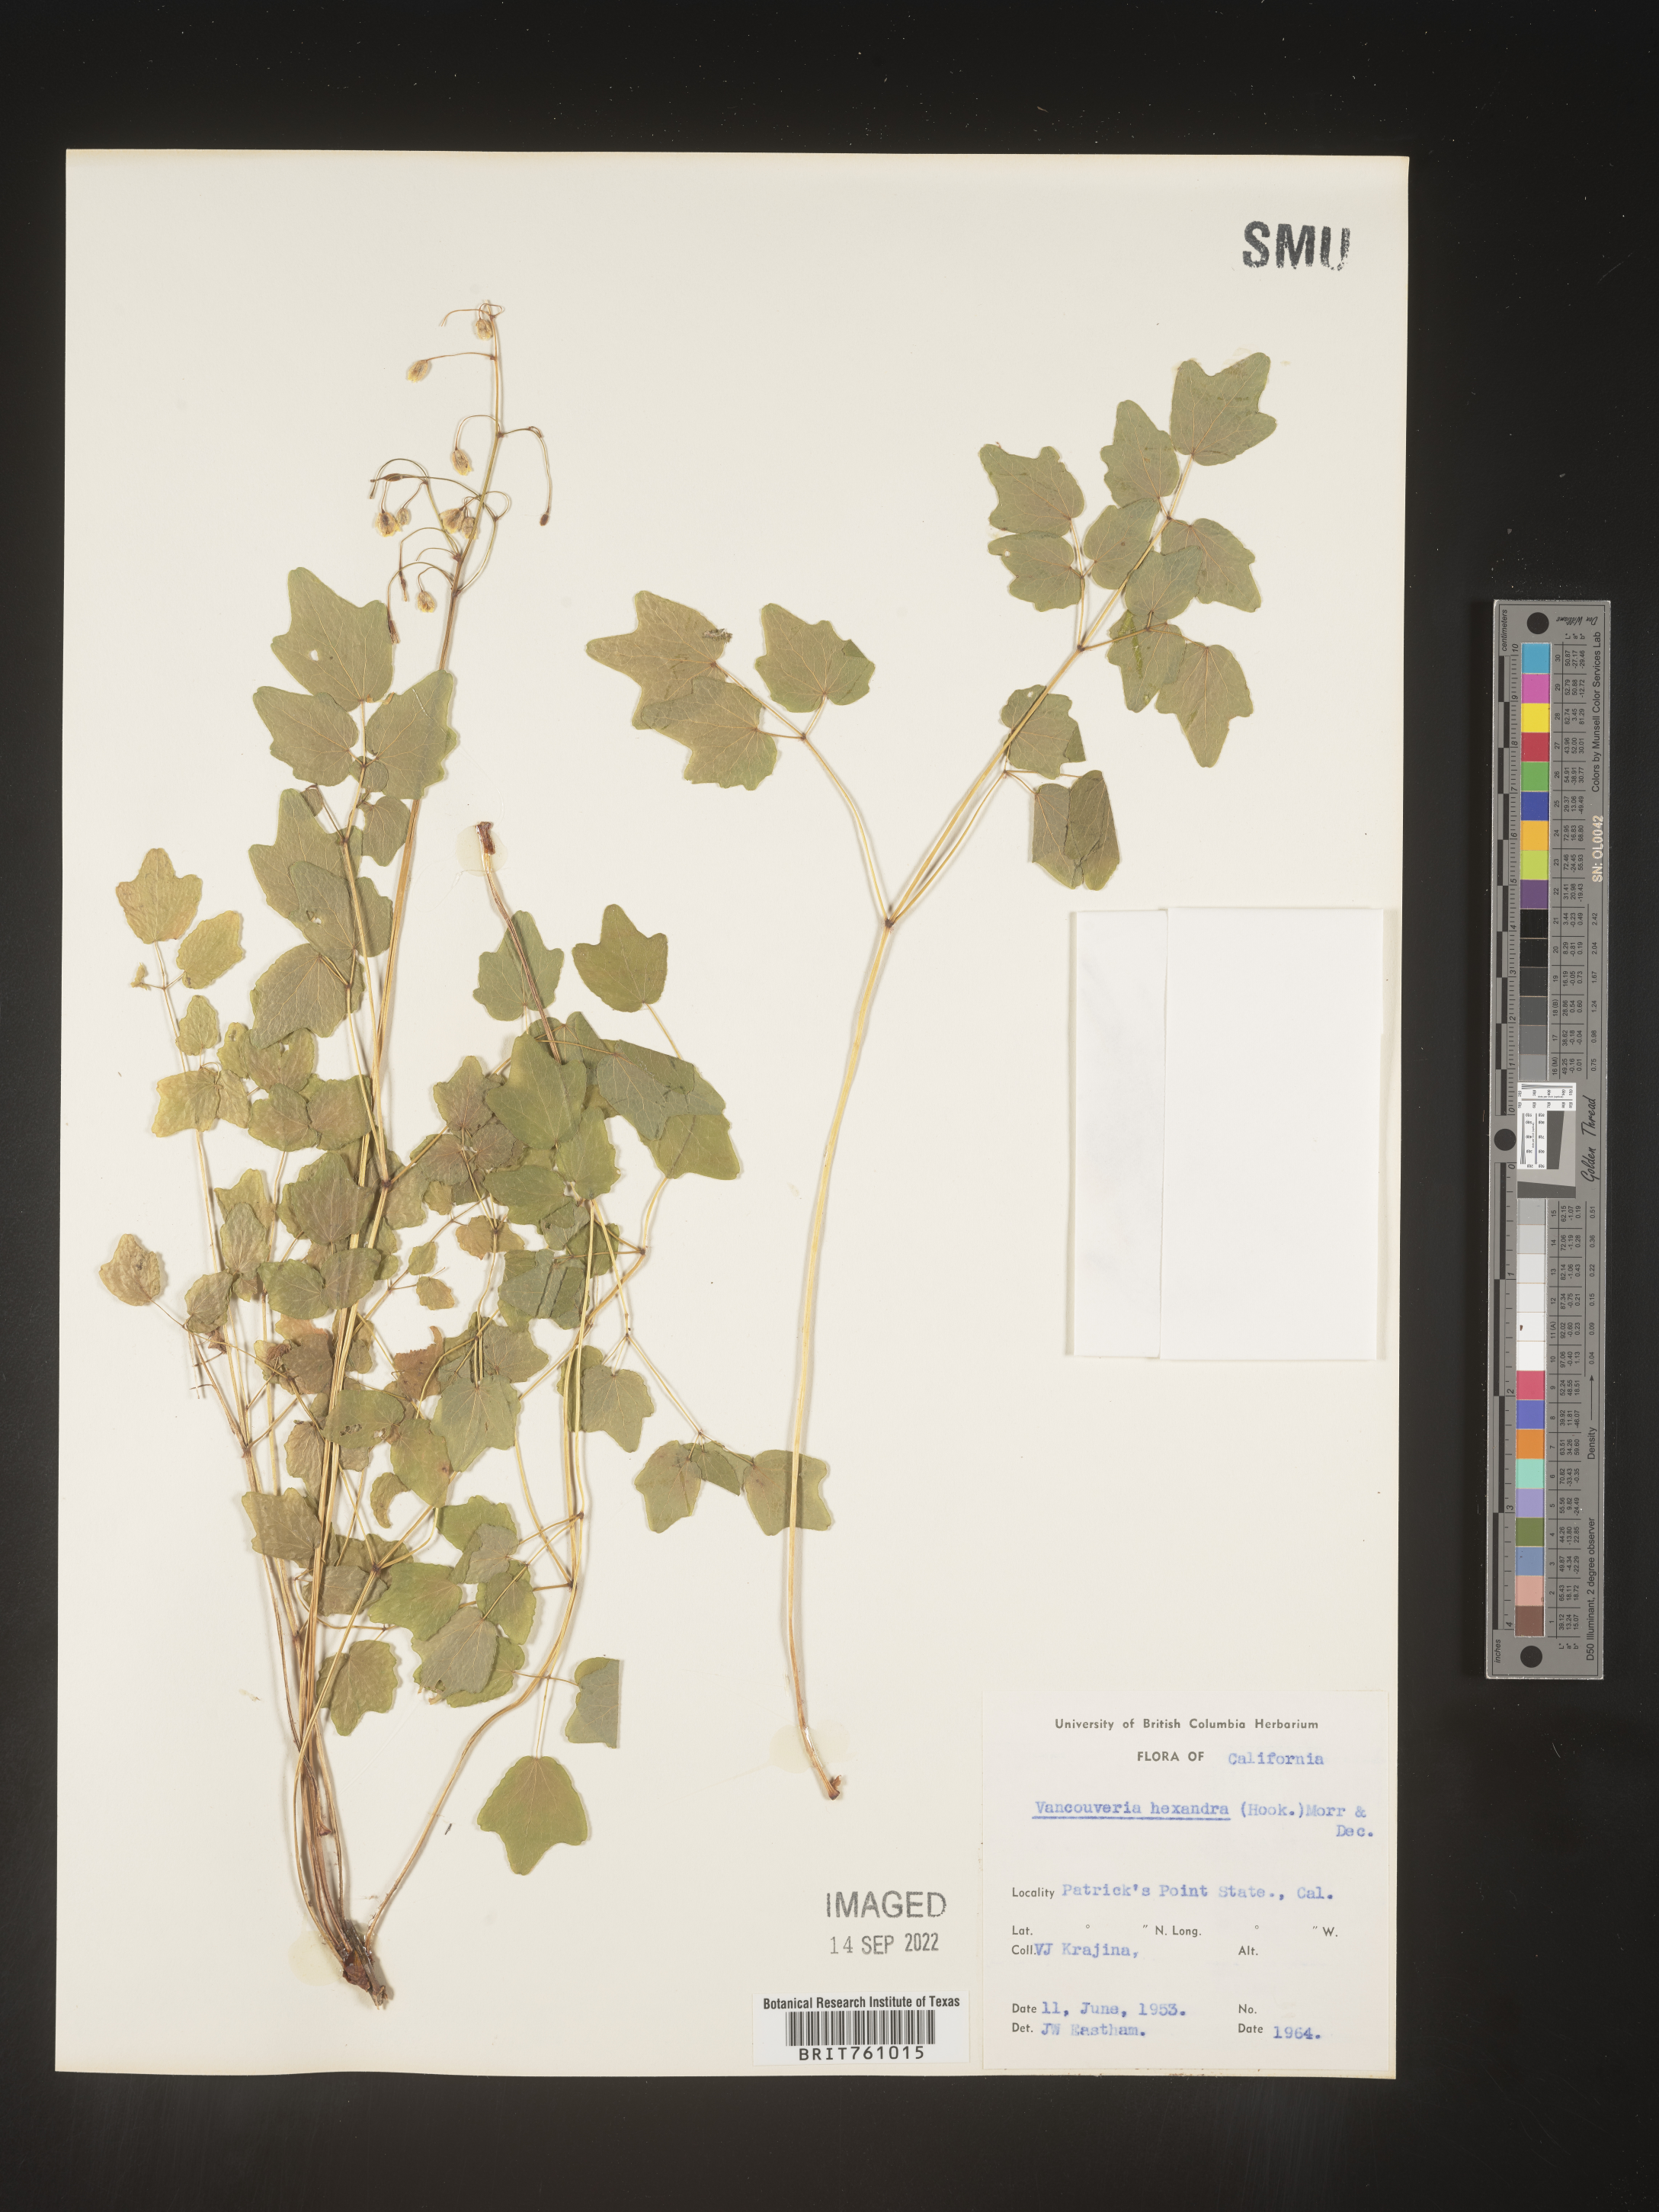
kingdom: Plantae
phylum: Tracheophyta
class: Magnoliopsida
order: Ranunculales
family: Berberidaceae
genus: Vancouveria
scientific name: Vancouveria
